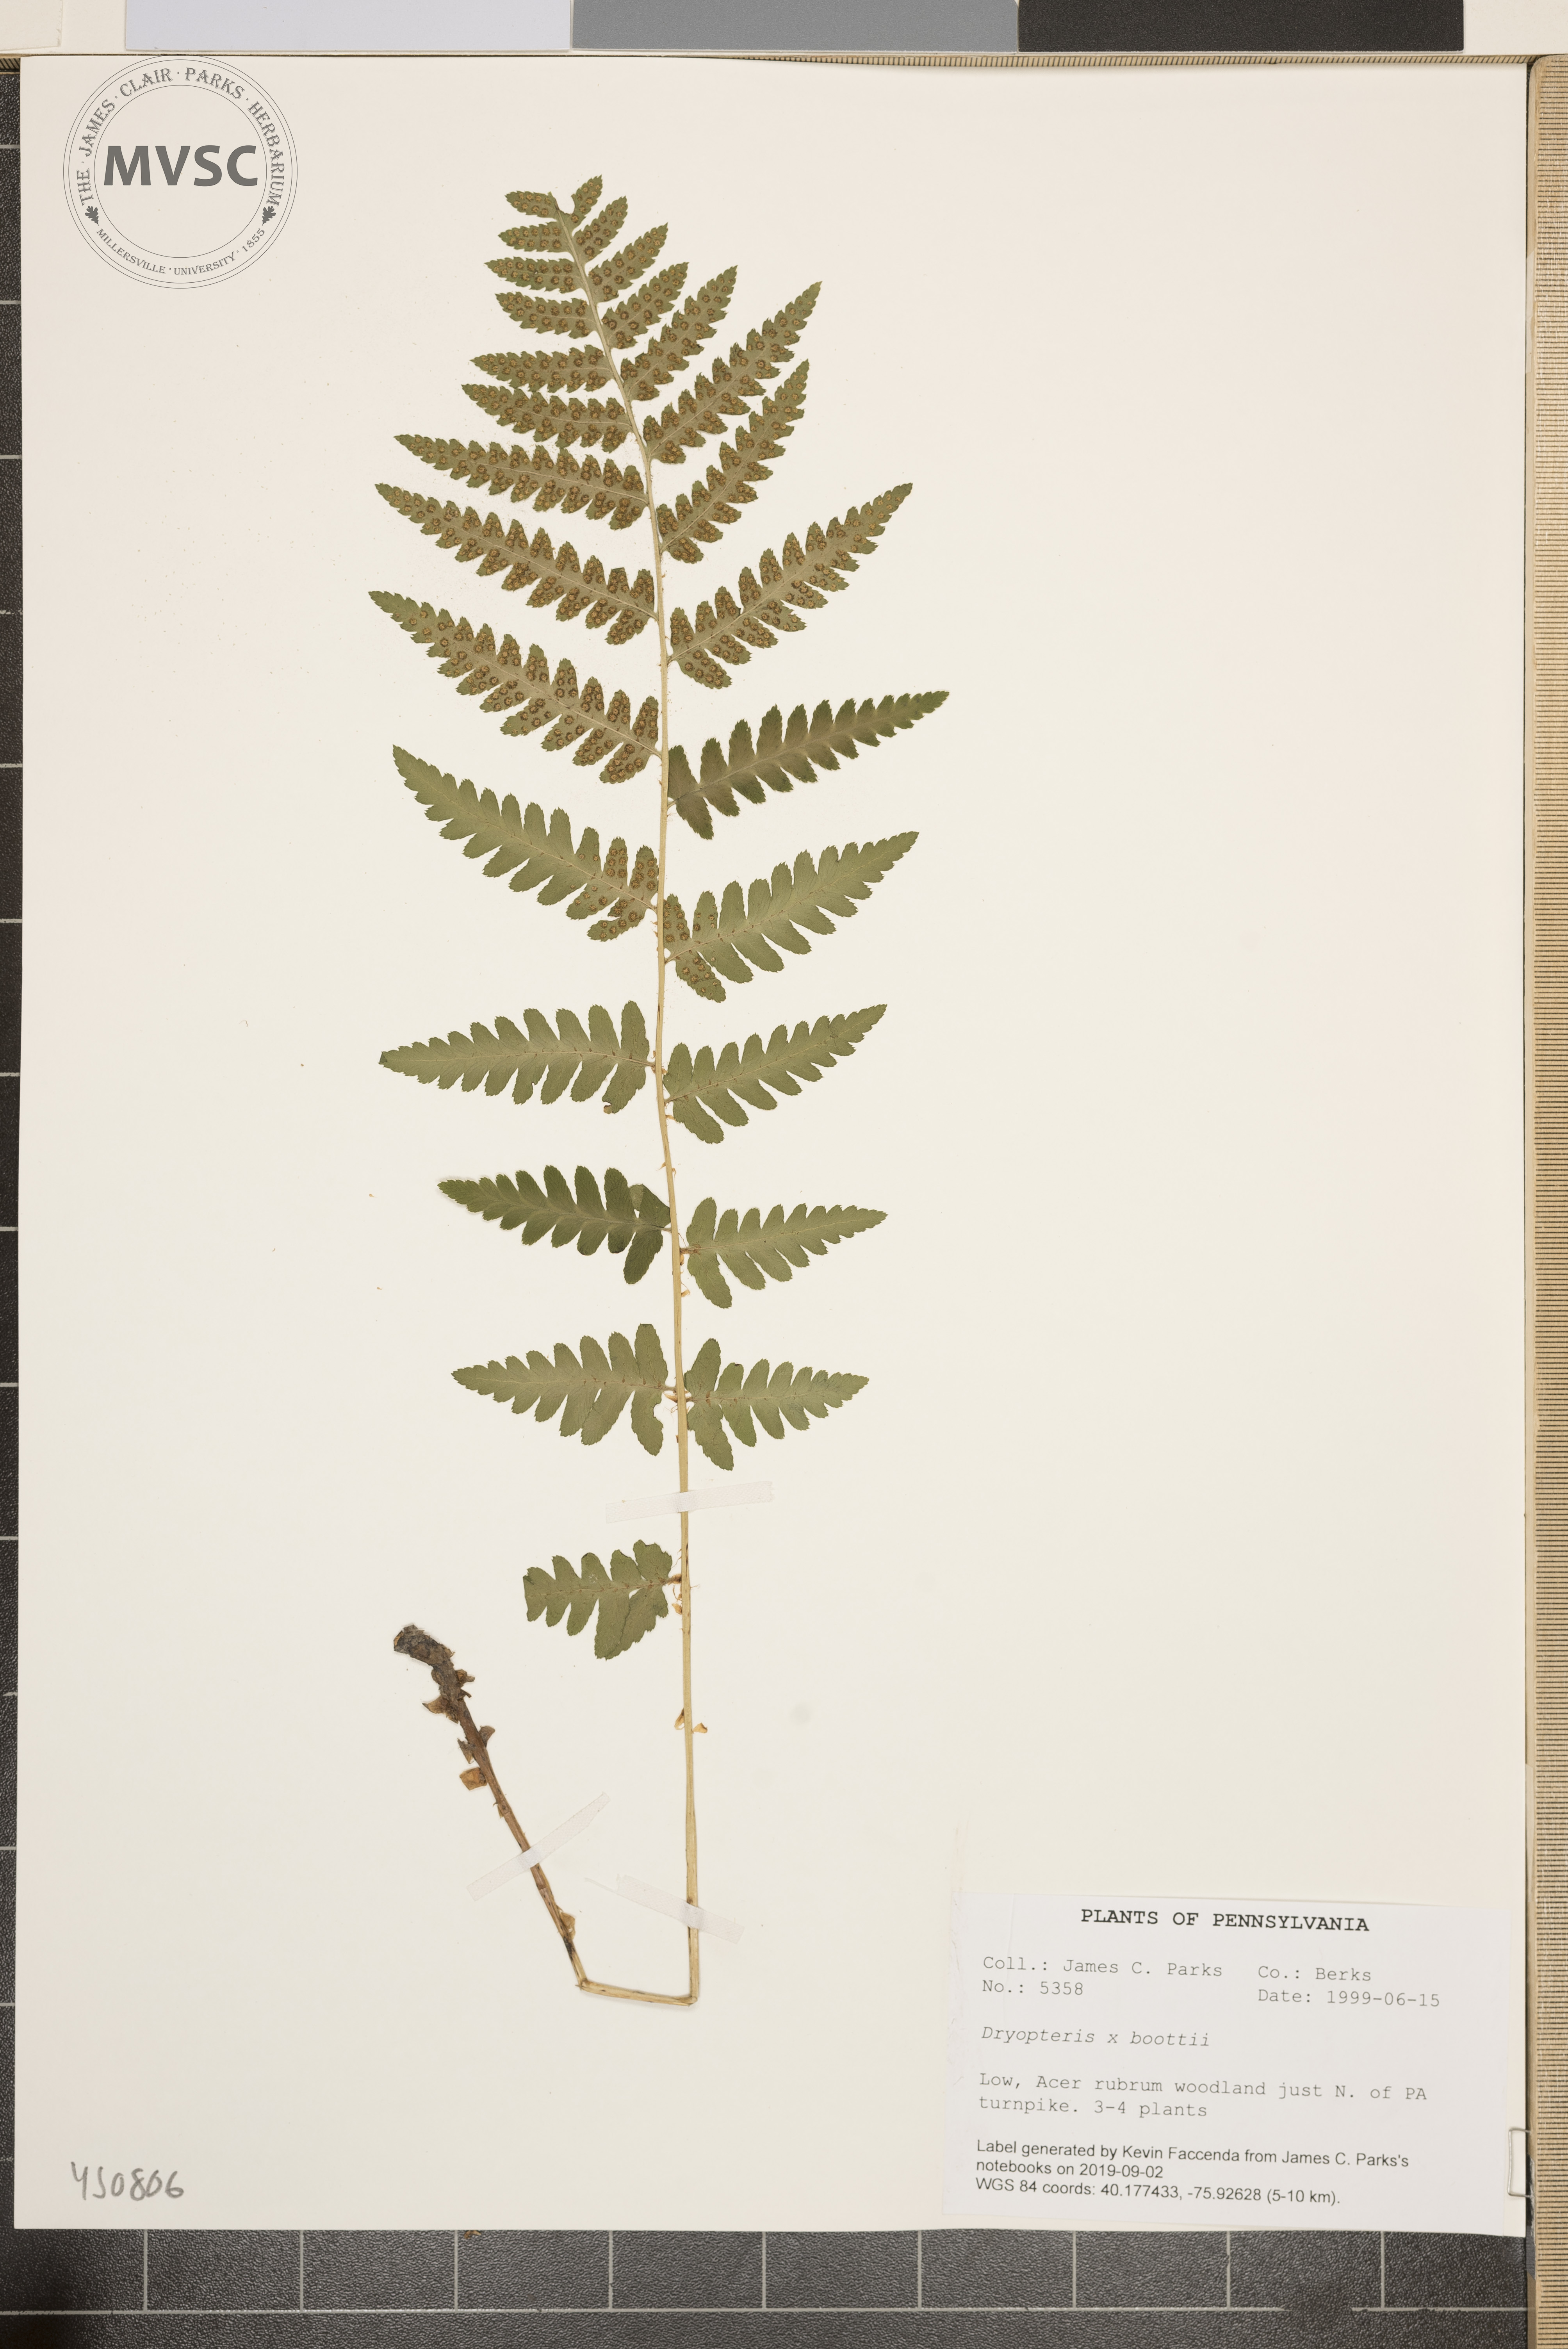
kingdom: Plantae
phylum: Tracheophyta
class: Polypodiopsida
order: Polypodiales
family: Dryopteridaceae
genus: Dryopteris
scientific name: Dryopteris cristata
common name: Crested wood fern
